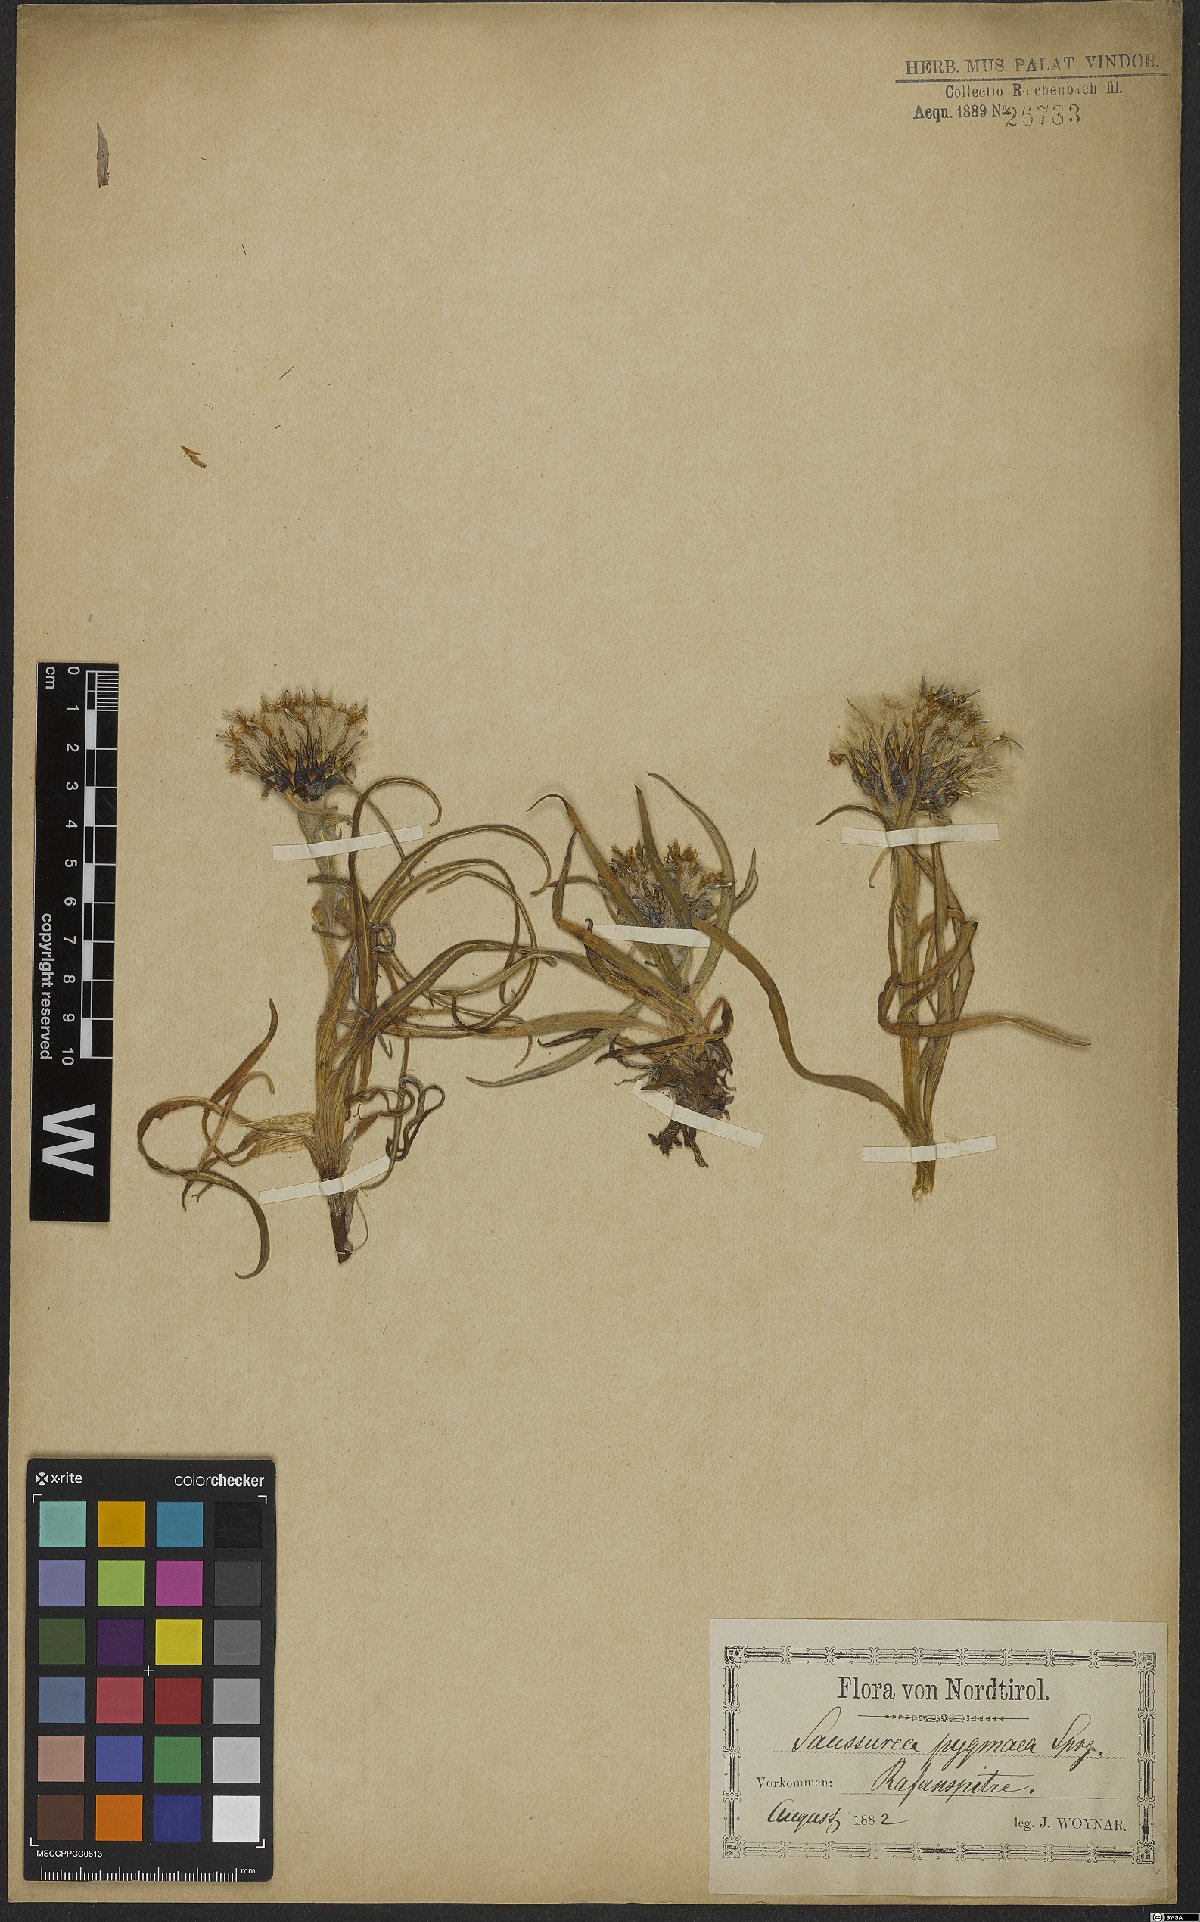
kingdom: Plantae
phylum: Tracheophyta
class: Magnoliopsida
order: Asterales
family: Asteraceae
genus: Saussurea
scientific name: Saussurea pygmaea
